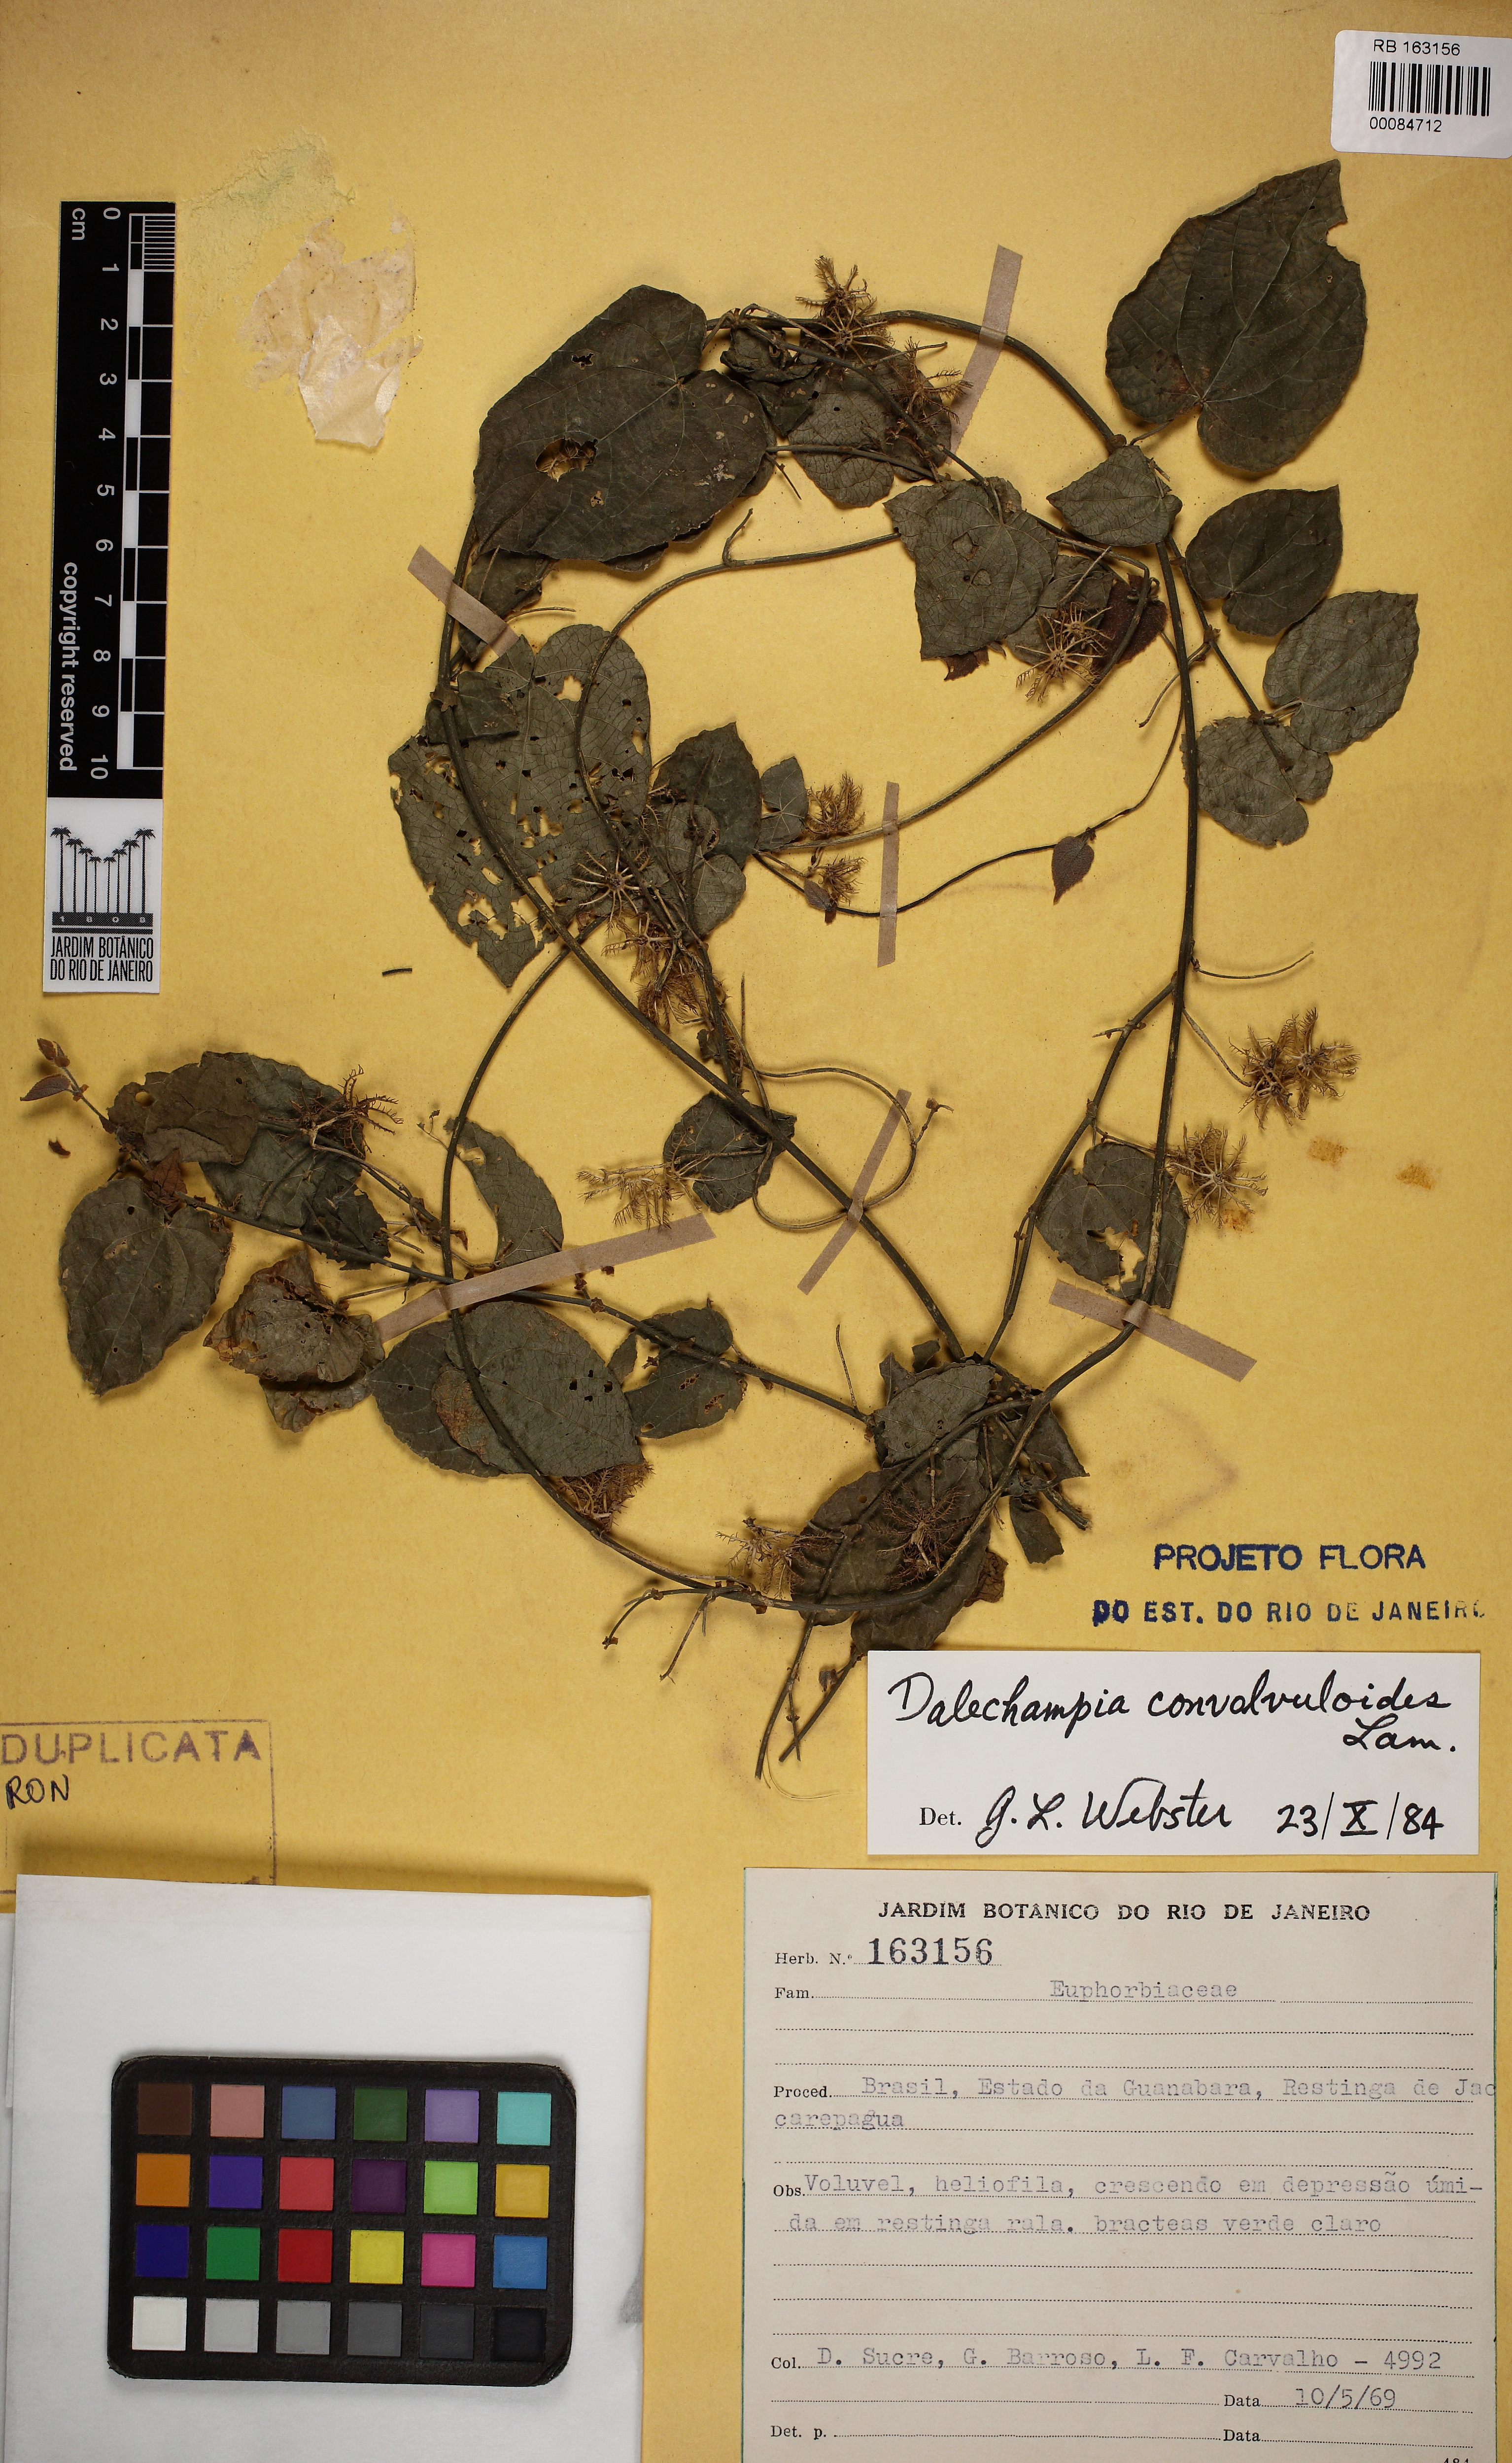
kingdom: Plantae
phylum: Tracheophyta
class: Magnoliopsida
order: Malpighiales
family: Euphorbiaceae
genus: Dalechampia
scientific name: Dalechampia convolvuloides
